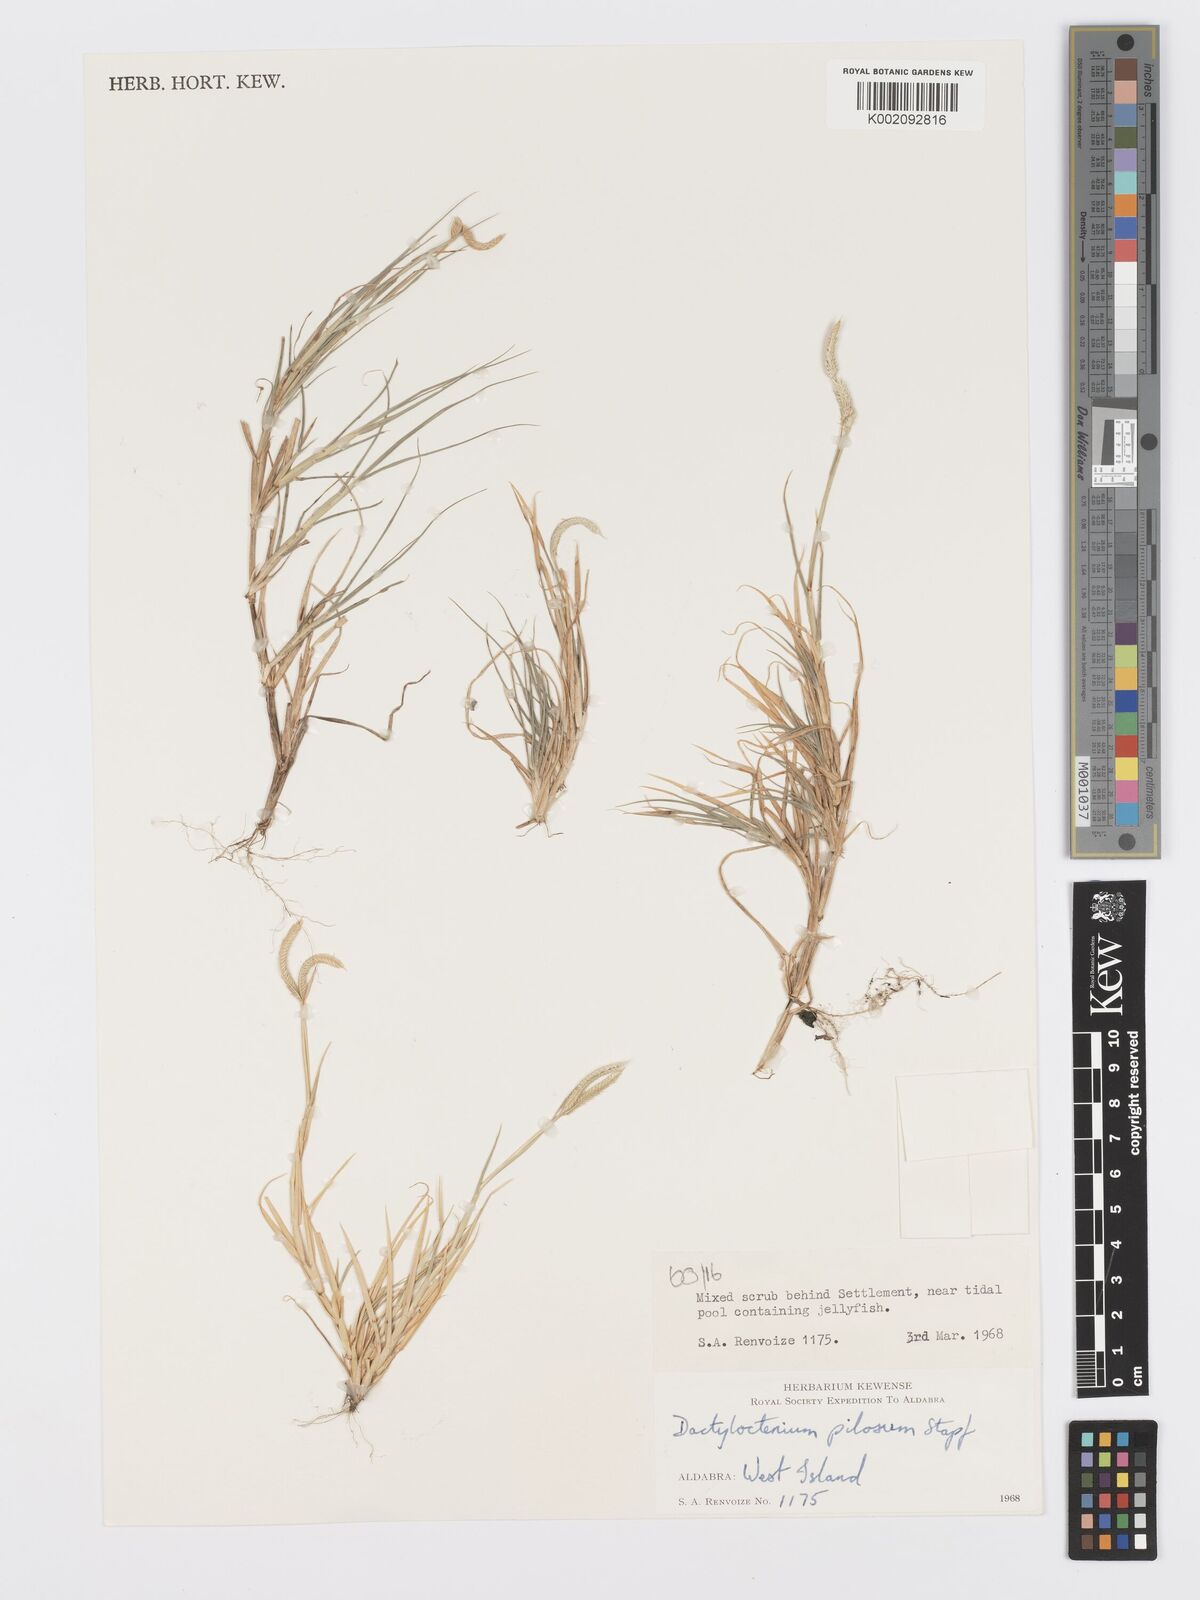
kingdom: Plantae
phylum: Tracheophyta
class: Liliopsida
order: Poales
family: Poaceae
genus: Dactyloctenium
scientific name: Dactyloctenium pilosum
